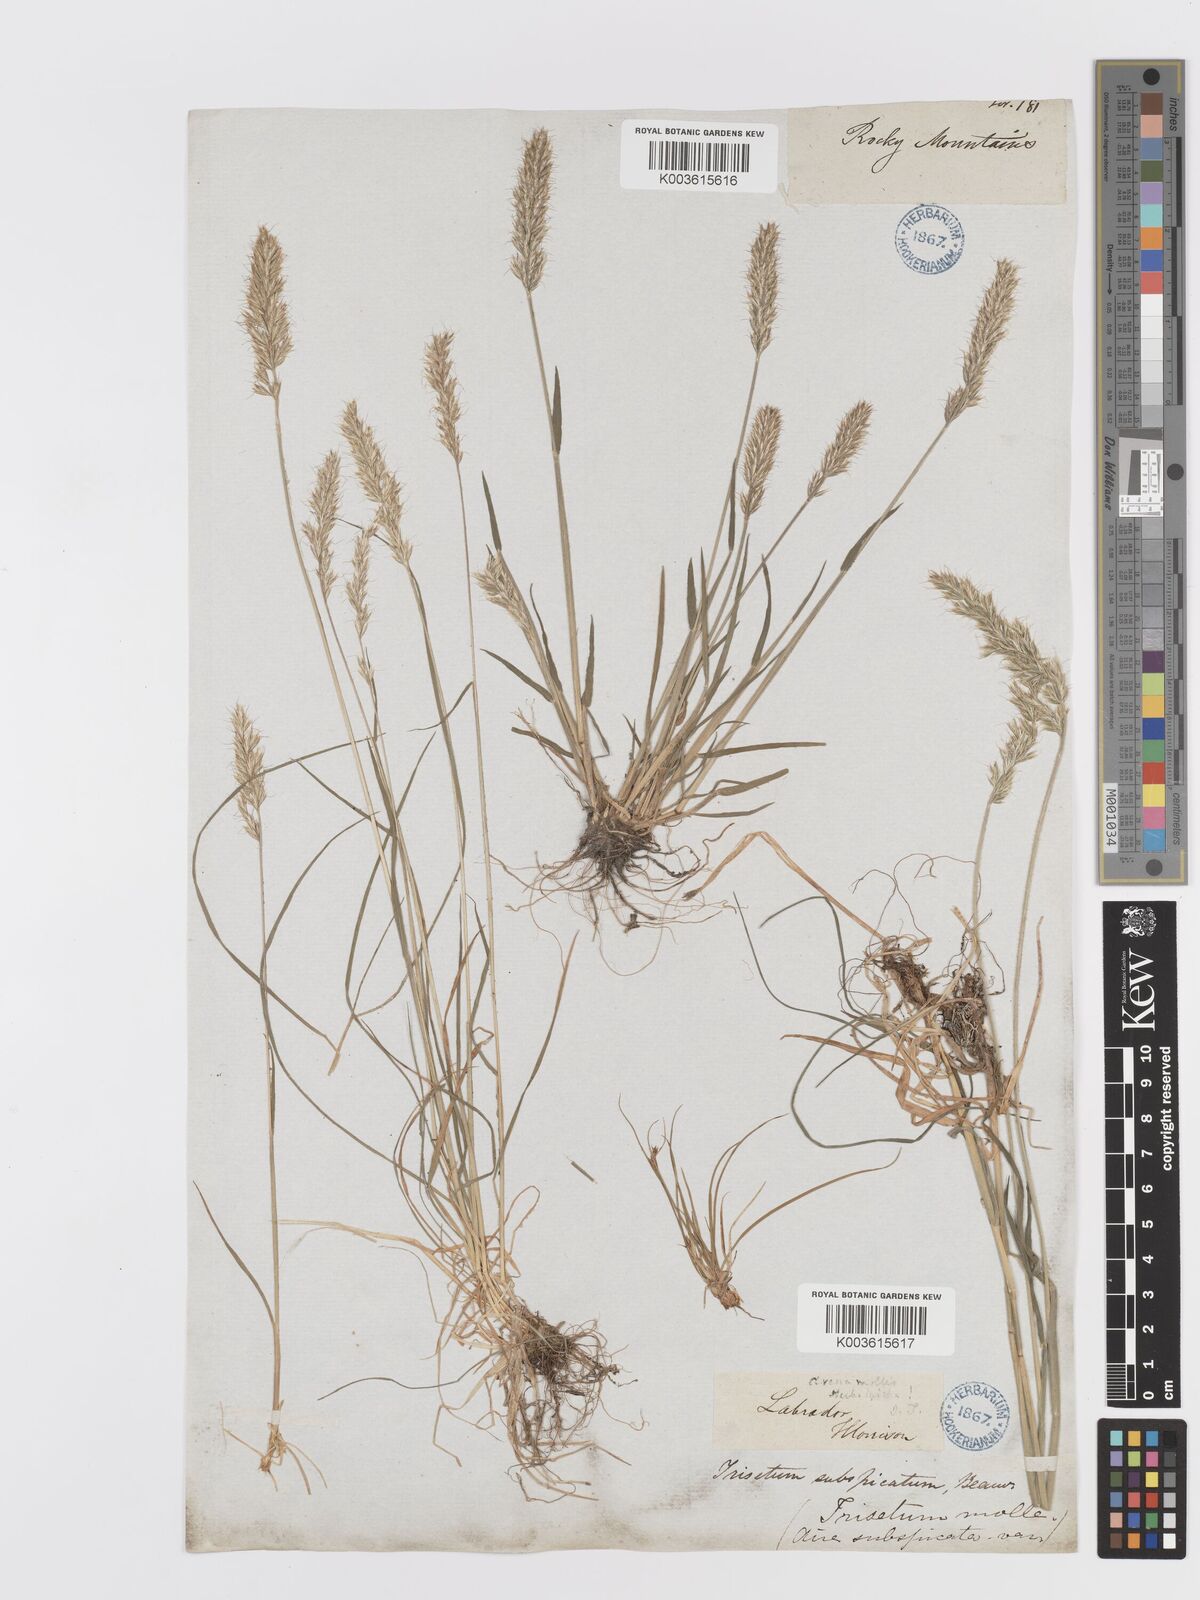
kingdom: Plantae
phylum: Tracheophyta
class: Liliopsida
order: Poales
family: Poaceae
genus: Koeleria
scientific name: Koeleria spicata
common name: Mountain trisetum
